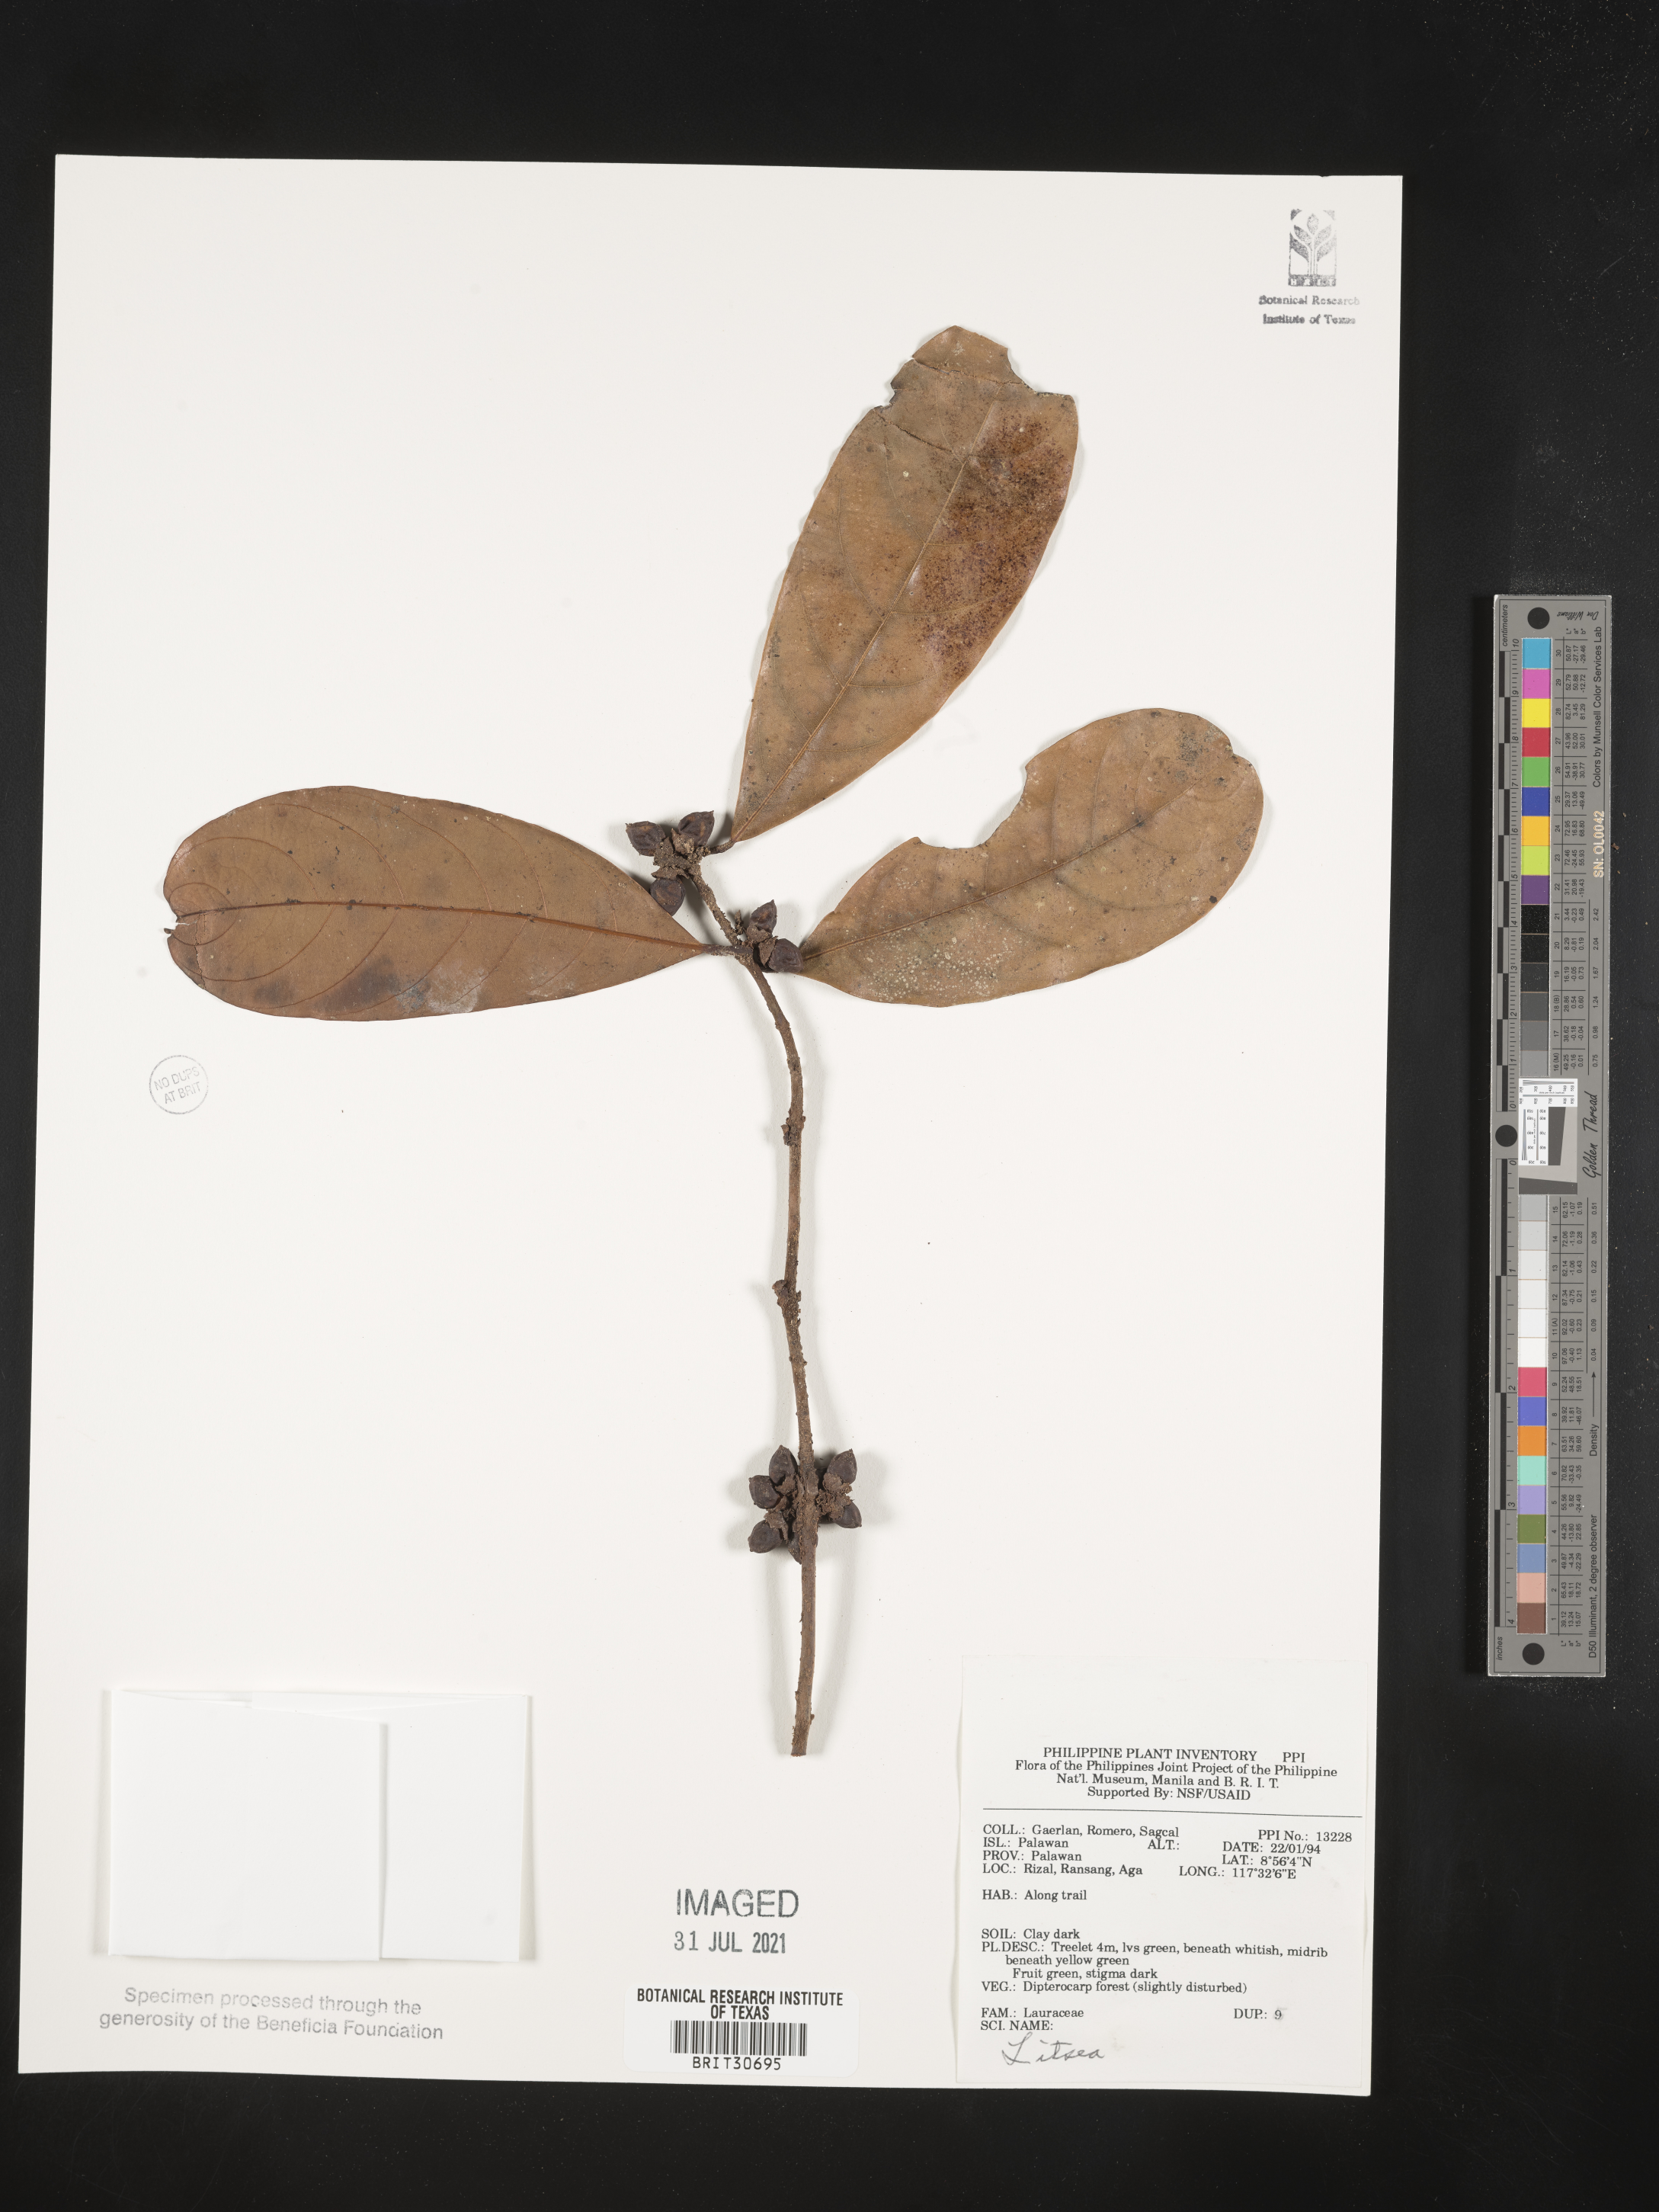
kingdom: Plantae
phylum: Tracheophyta
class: Magnoliopsida
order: Laurales
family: Lauraceae
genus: Litsea
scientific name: Litsea
